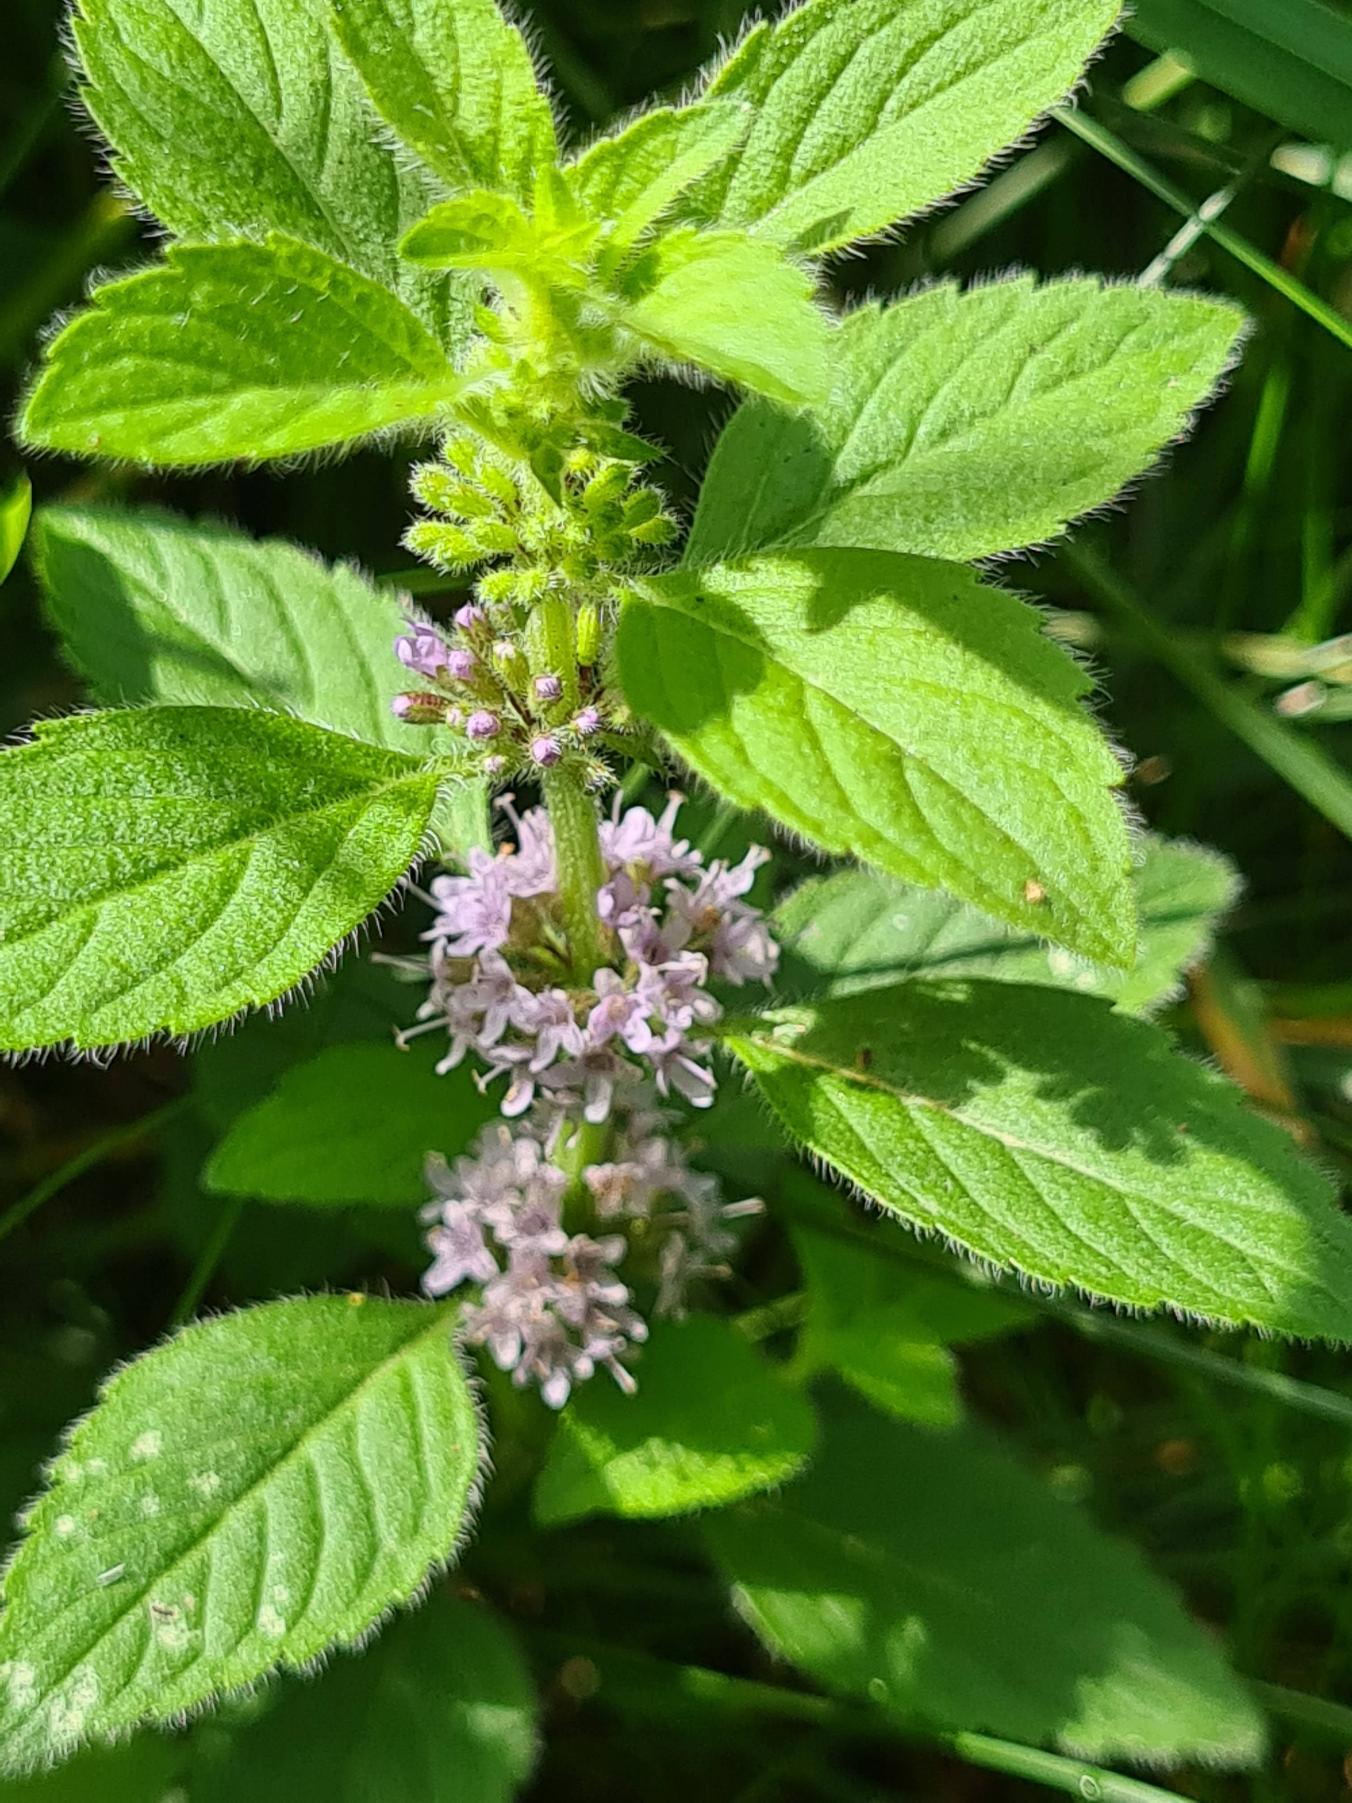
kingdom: Plantae
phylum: Tracheophyta
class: Magnoliopsida
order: Lamiales
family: Lamiaceae
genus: Mentha
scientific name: Mentha arvensis
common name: Ager-mynte
